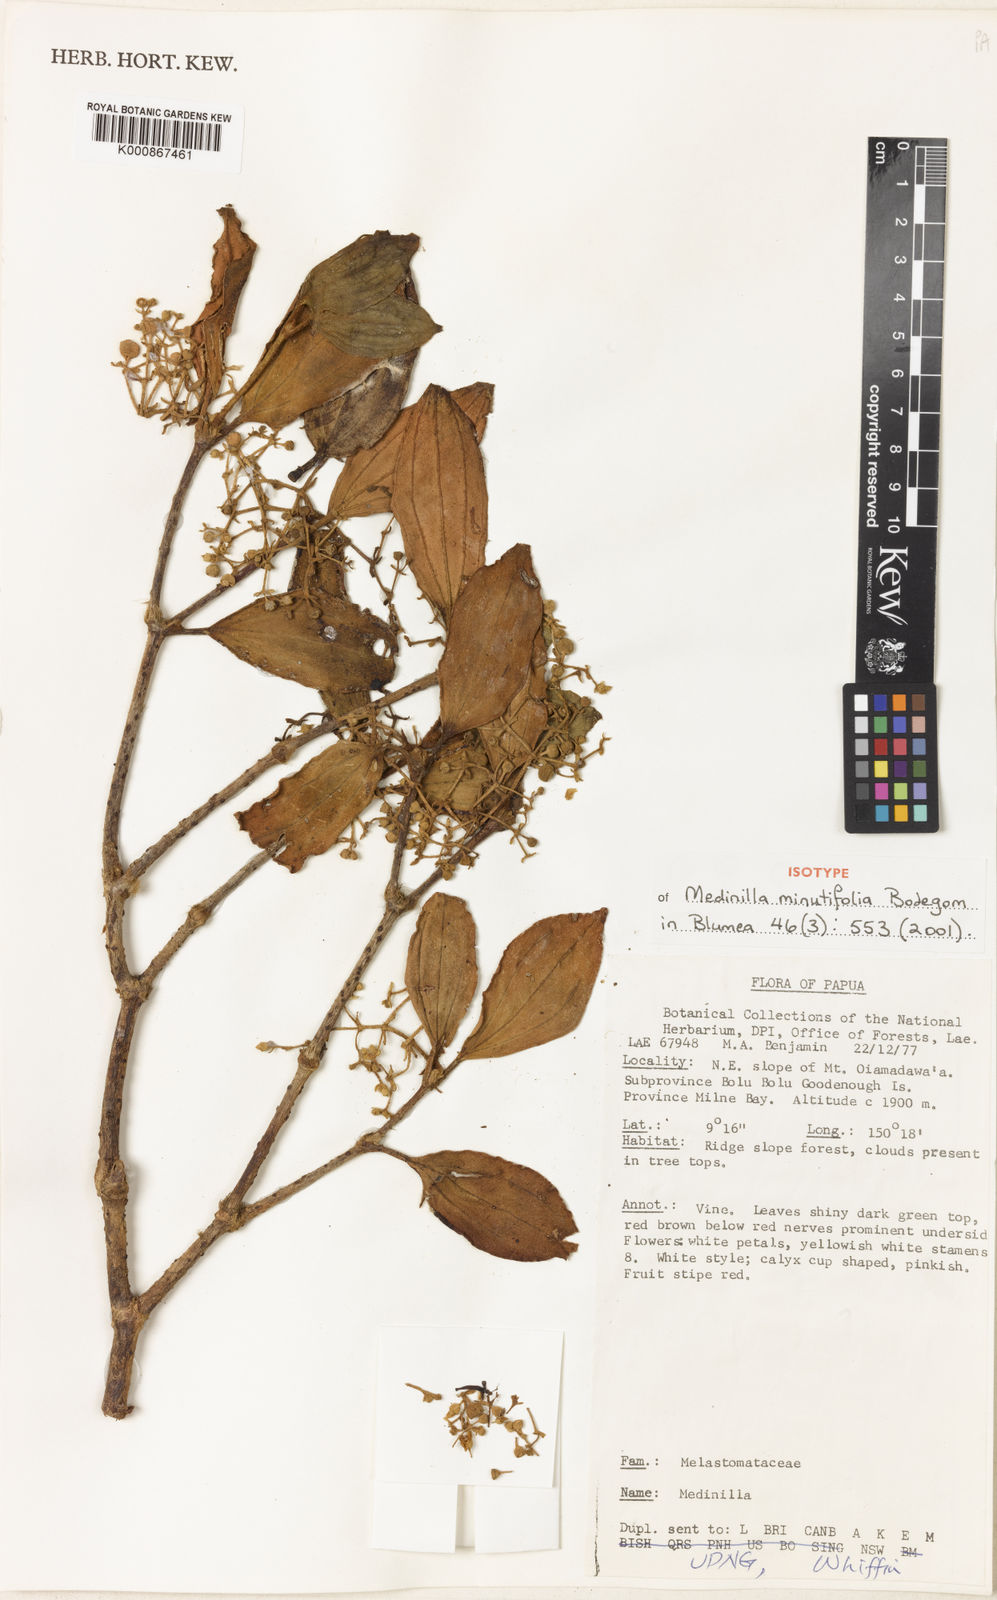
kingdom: Plantae
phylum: Tracheophyta
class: Magnoliopsida
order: Myrtales
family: Melastomataceae
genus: Medinilla
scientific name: Medinilla minutifolia
